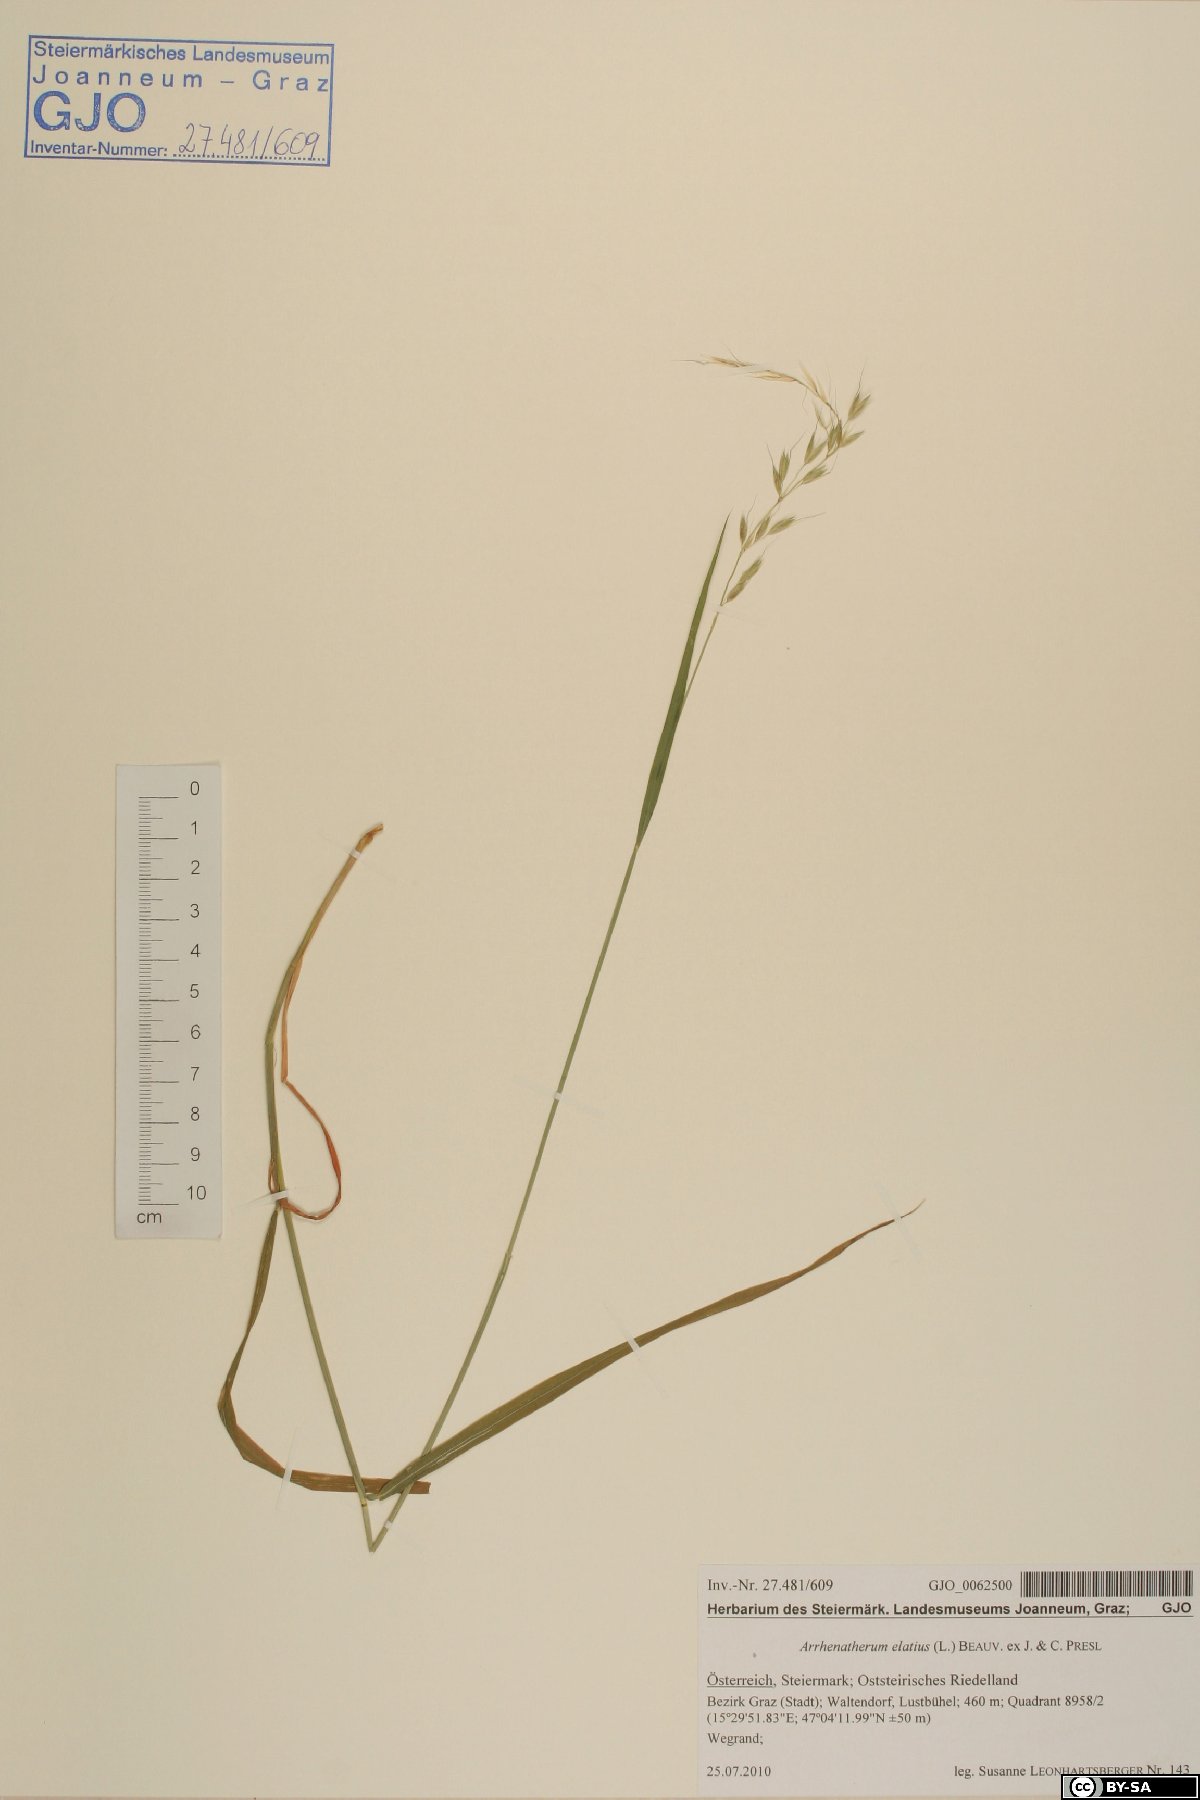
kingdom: Plantae
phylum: Tracheophyta
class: Liliopsida
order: Poales
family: Poaceae
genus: Arrhenatherum
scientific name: Arrhenatherum elatius
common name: Tall oatgrass
